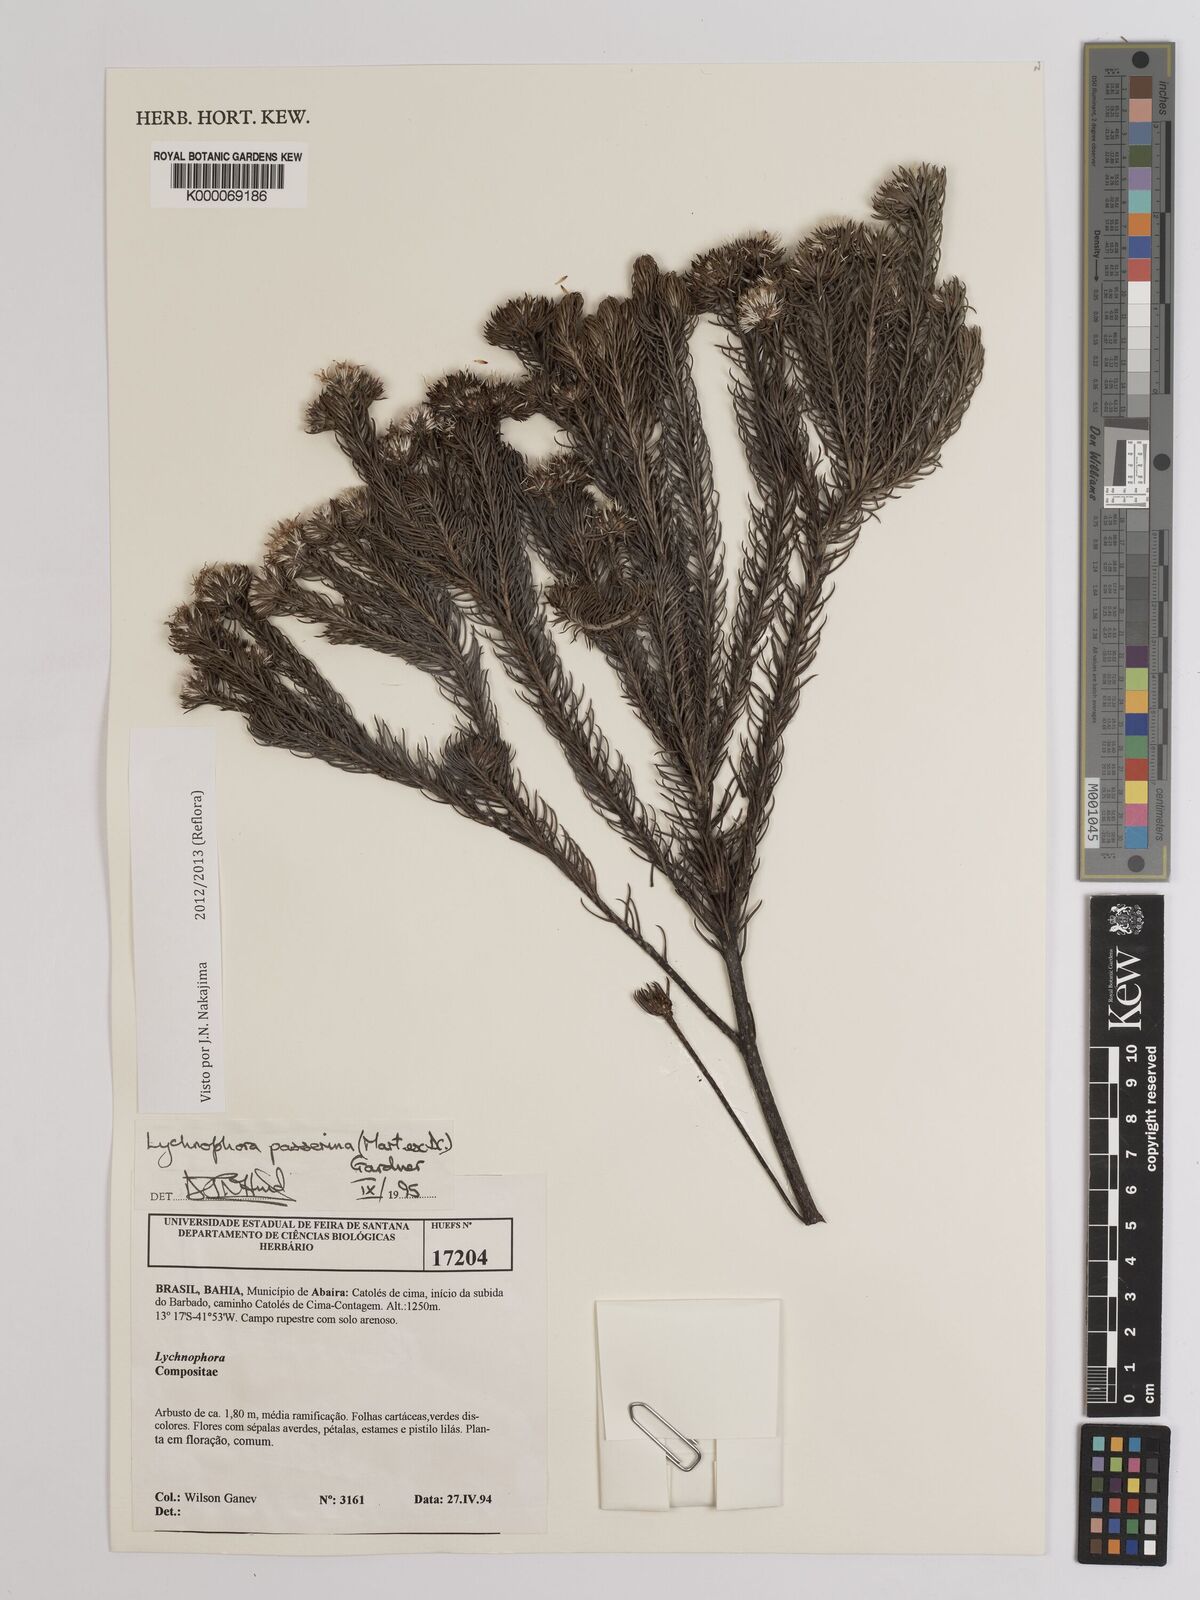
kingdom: Plantae
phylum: Tracheophyta
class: Magnoliopsida
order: Asterales
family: Asteraceae
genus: Lychnophora
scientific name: Lychnophora passerina
